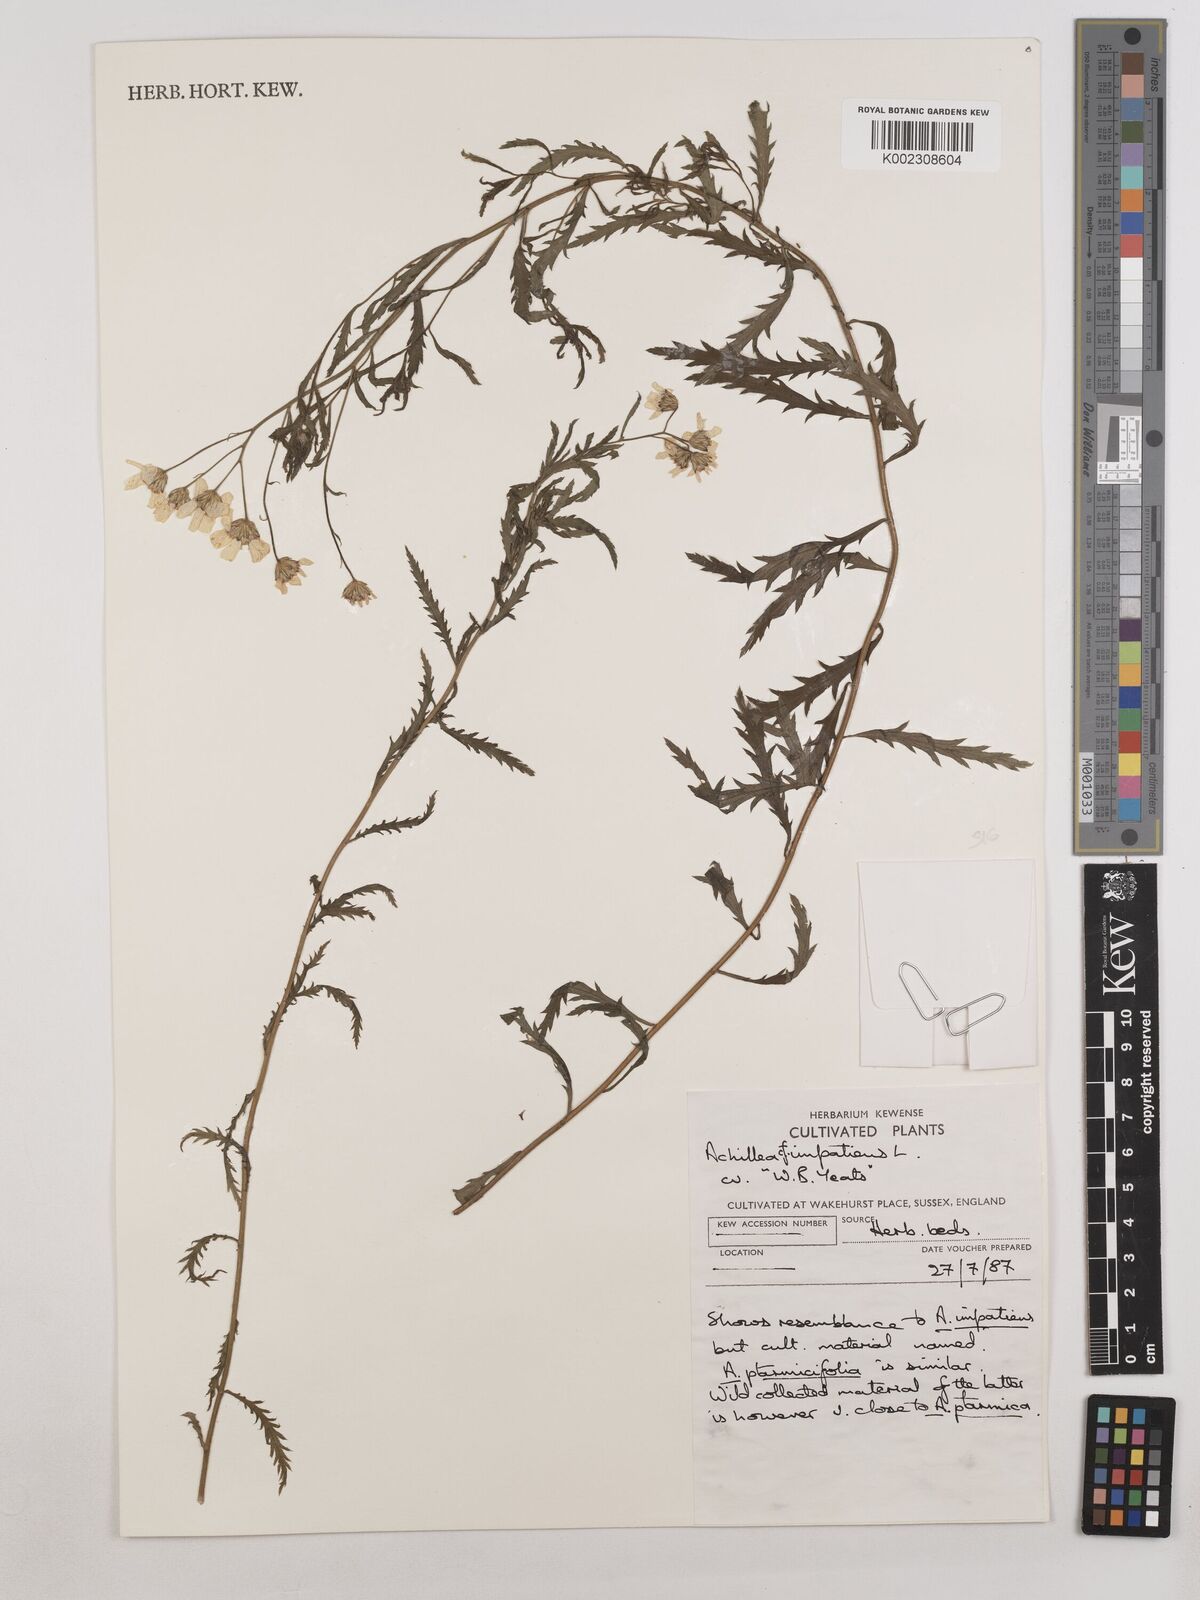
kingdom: Plantae
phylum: Tracheophyta
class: Magnoliopsida
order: Asterales
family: Asteraceae
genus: Achillea
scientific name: Achillea impatiens
